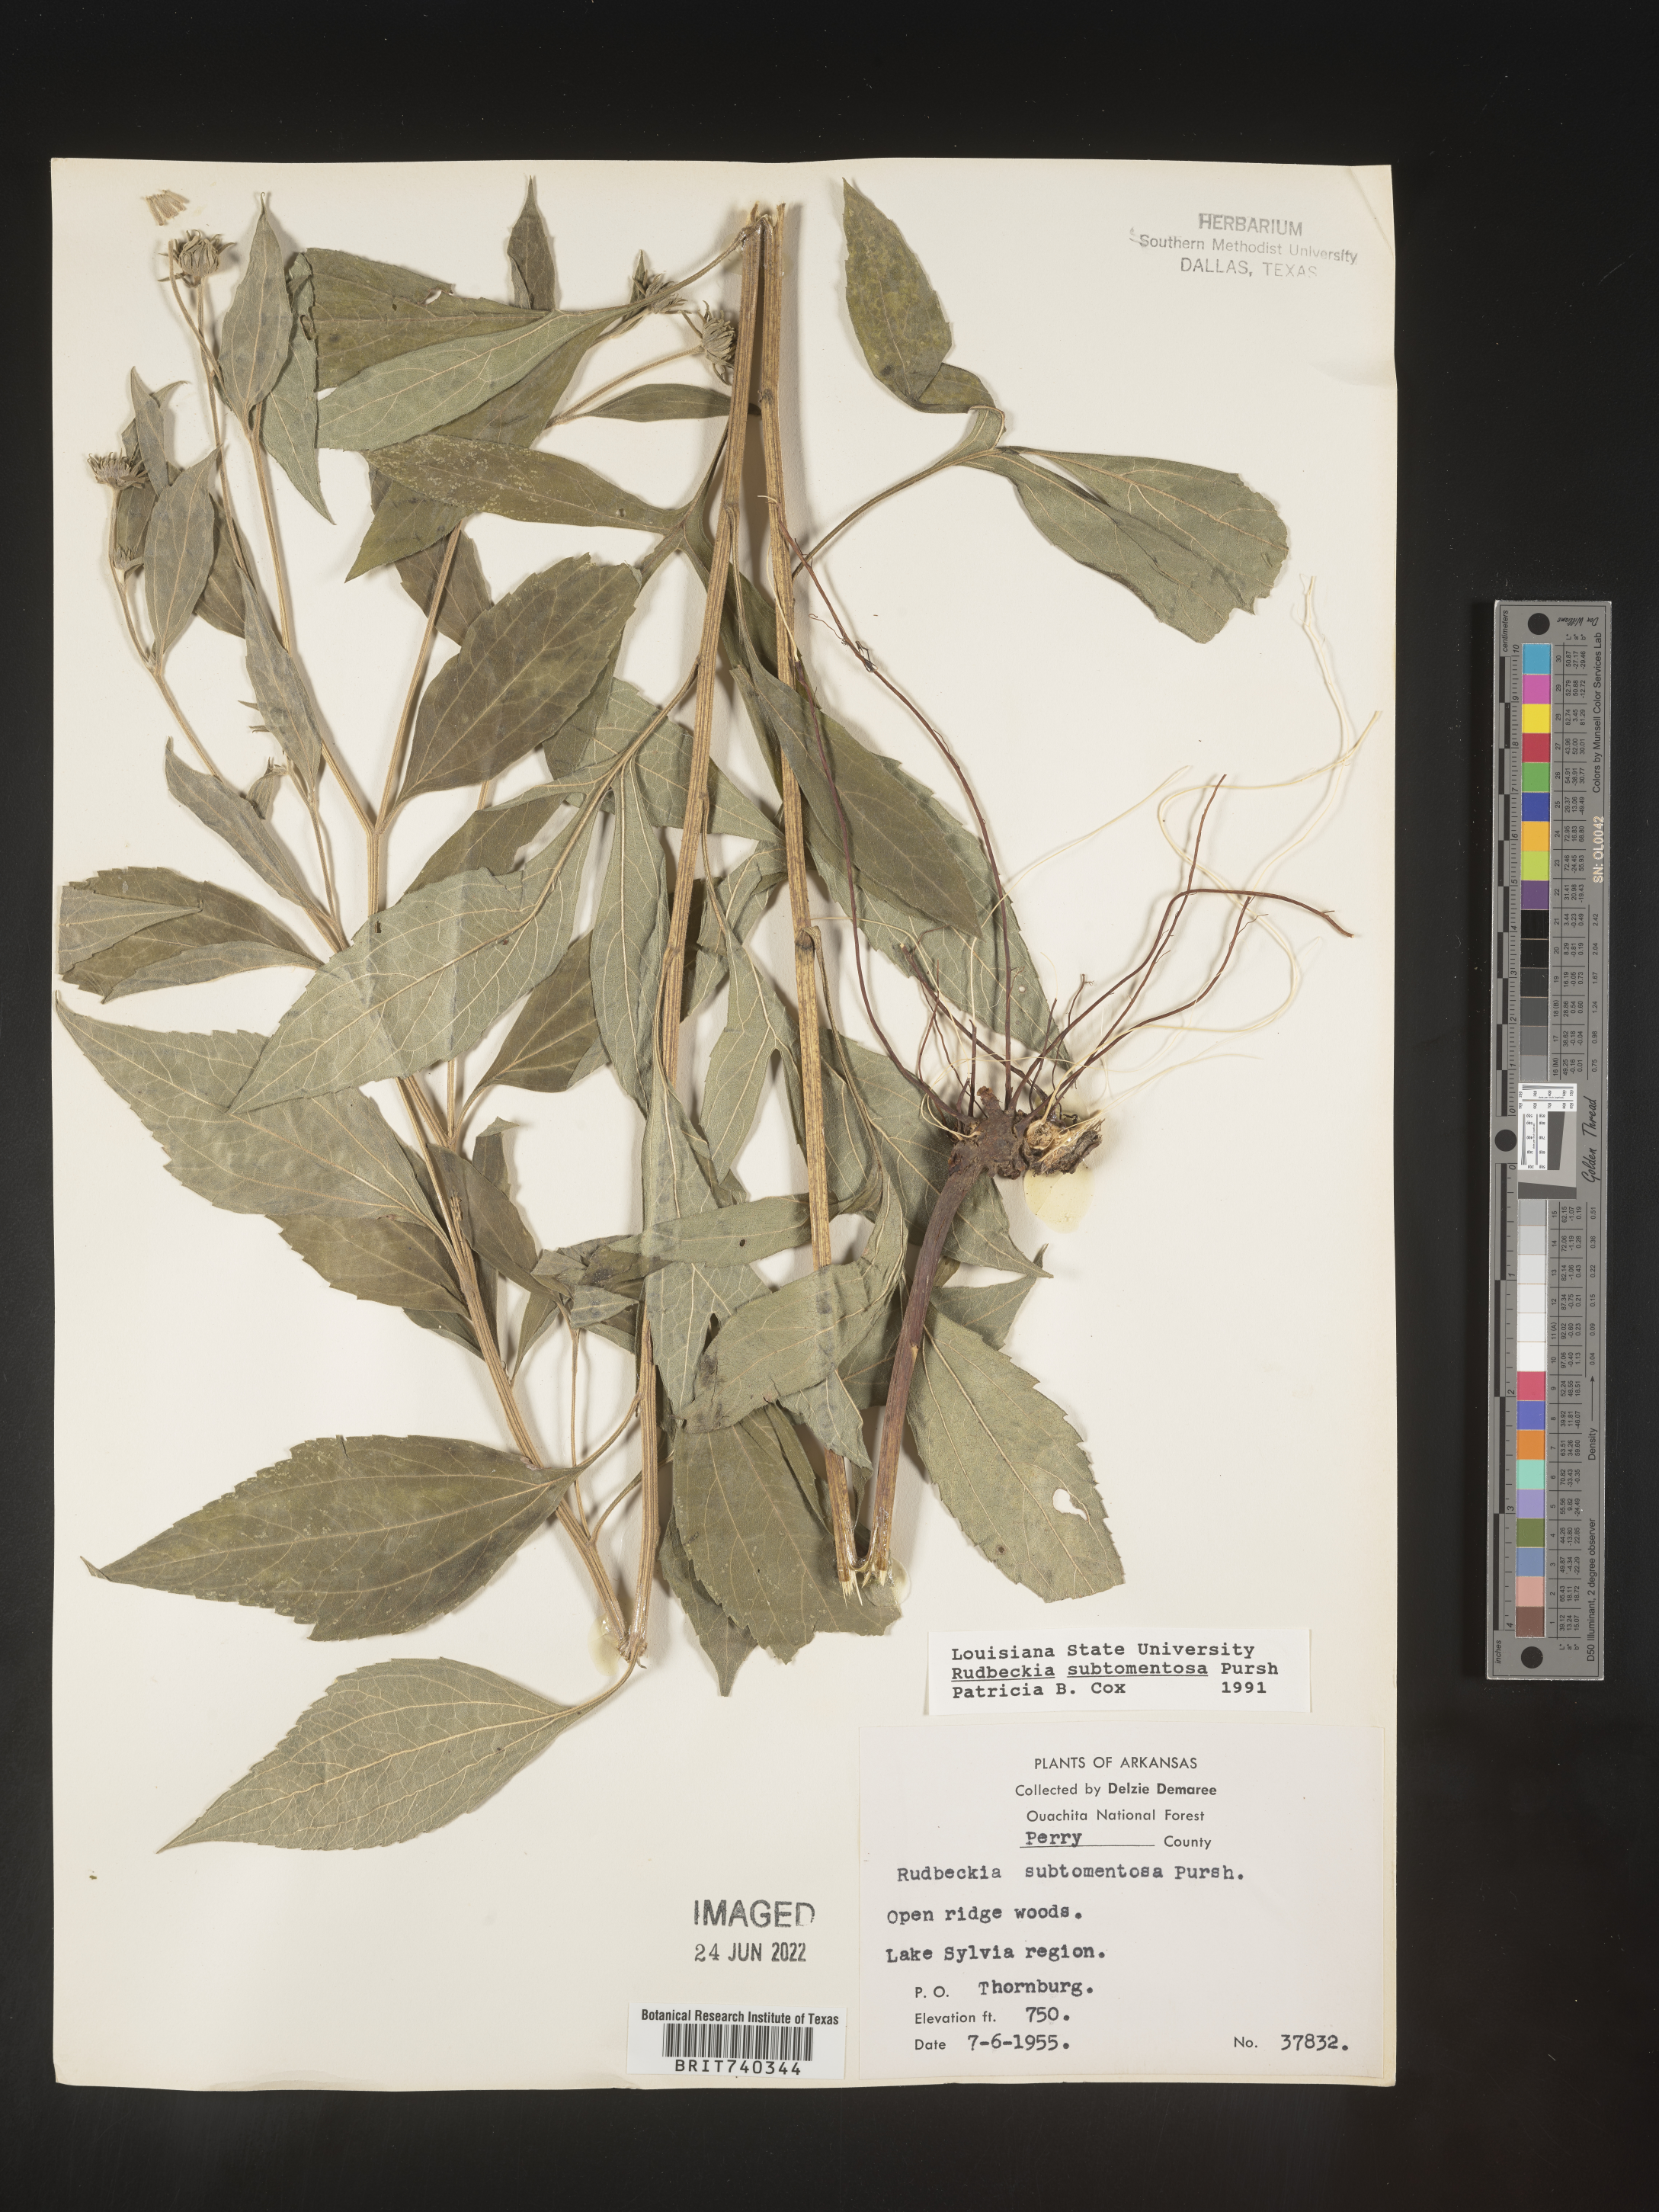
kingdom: Plantae
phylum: Tracheophyta
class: Magnoliopsida
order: Asterales
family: Asteraceae
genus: Rudbeckia
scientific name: Rudbeckia subtomentosa
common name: Sweet coneflower
